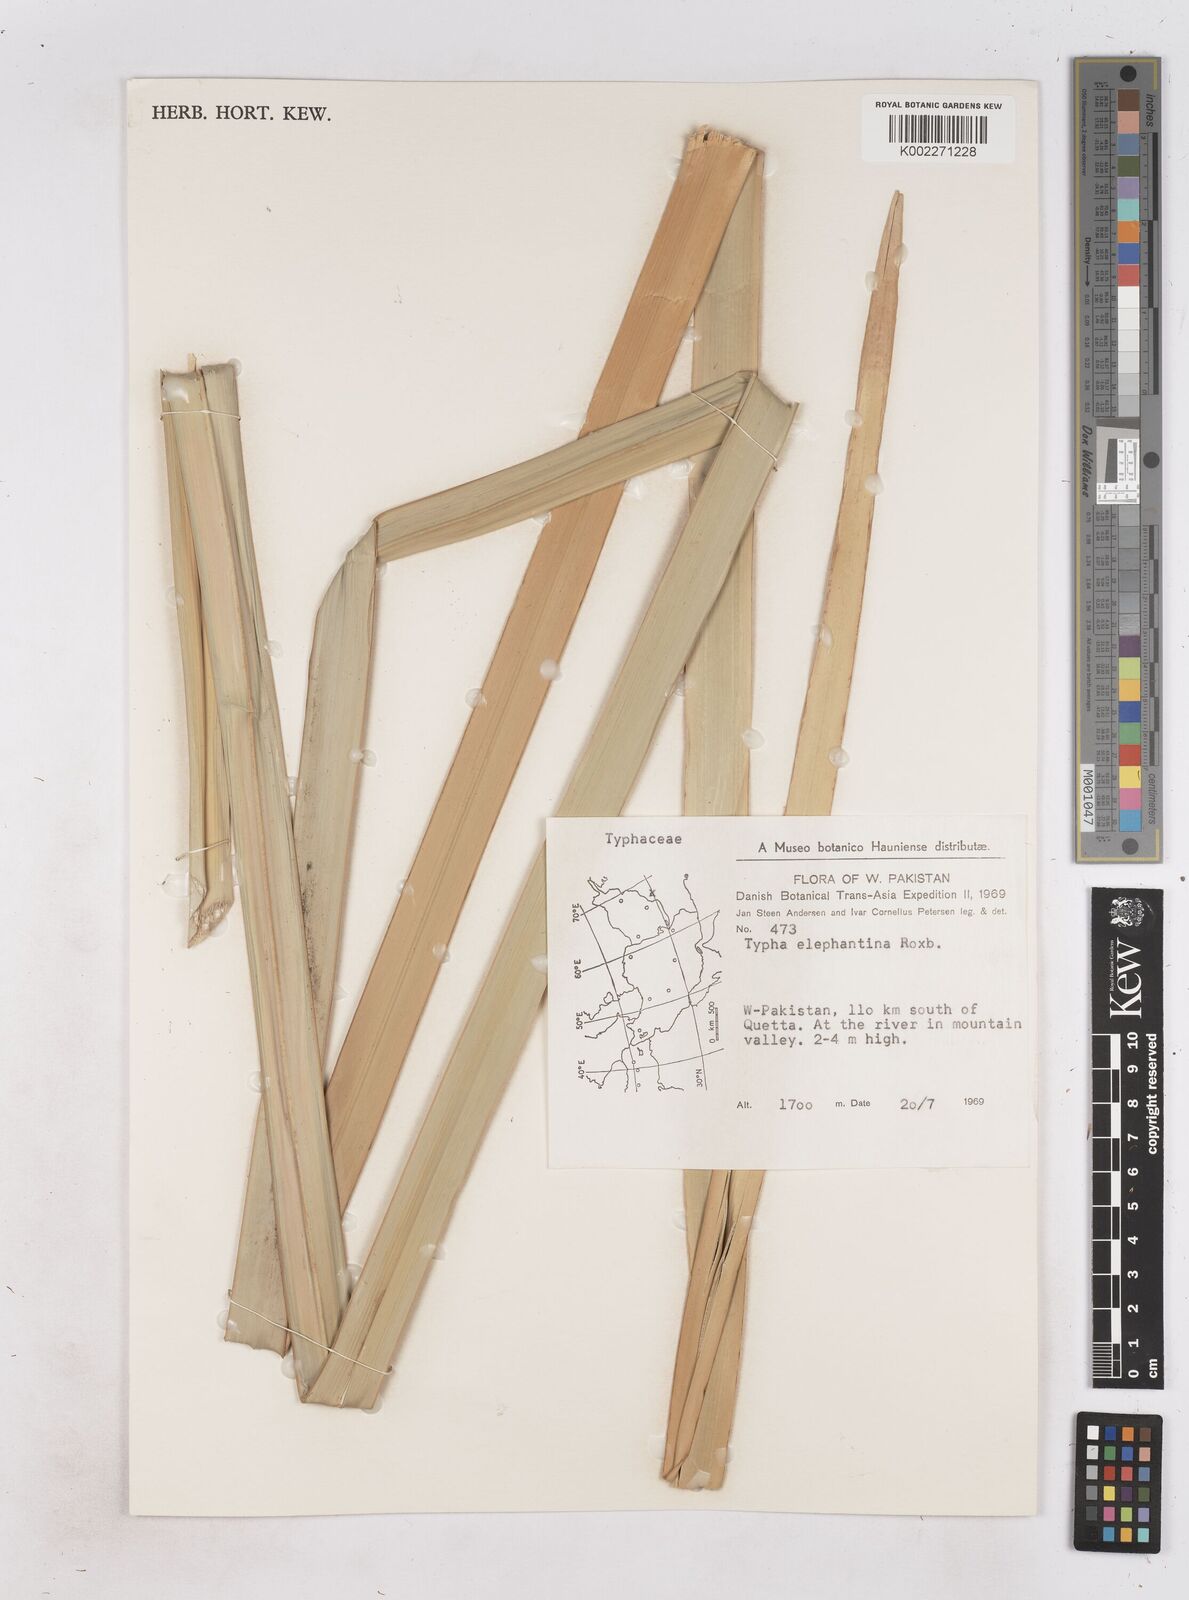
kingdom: Plantae
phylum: Tracheophyta
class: Liliopsida
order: Poales
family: Typhaceae
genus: Typha
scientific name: Typha elephantina
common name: Indian reed-grass
